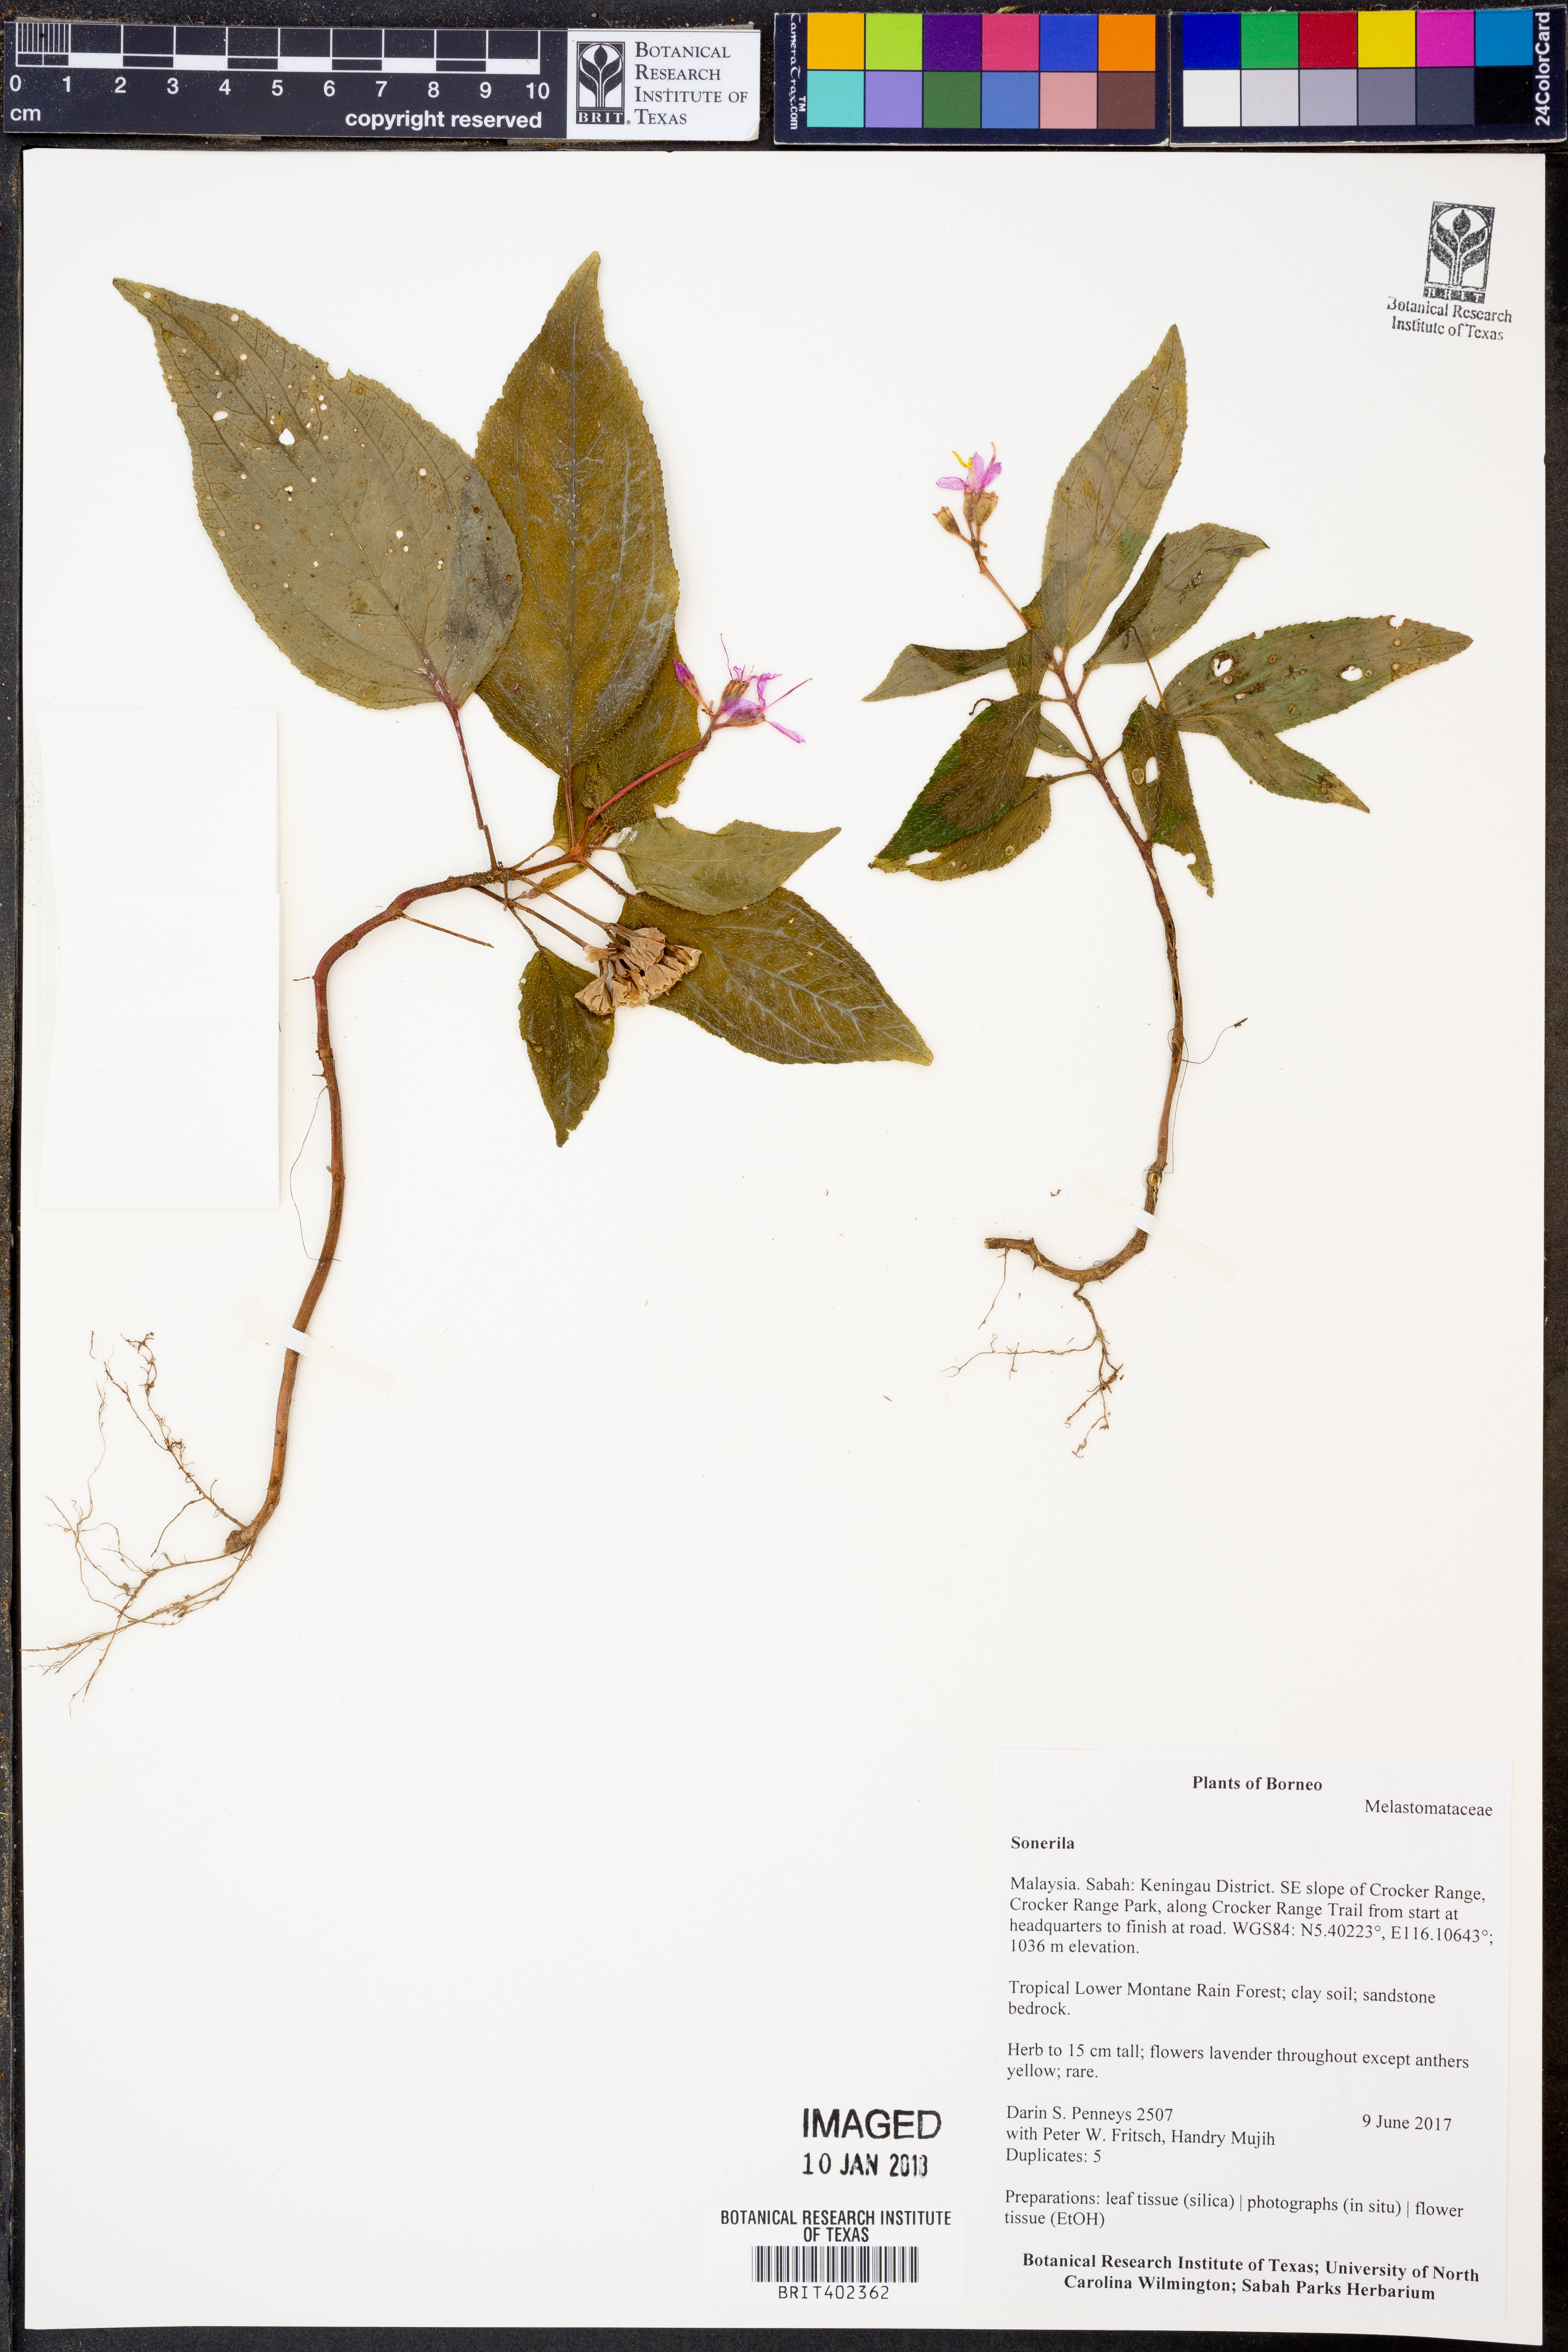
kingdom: Plantae
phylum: Tracheophyta
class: Magnoliopsida
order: Myrtales
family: Melastomataceae
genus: Sonerila
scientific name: Sonerila
